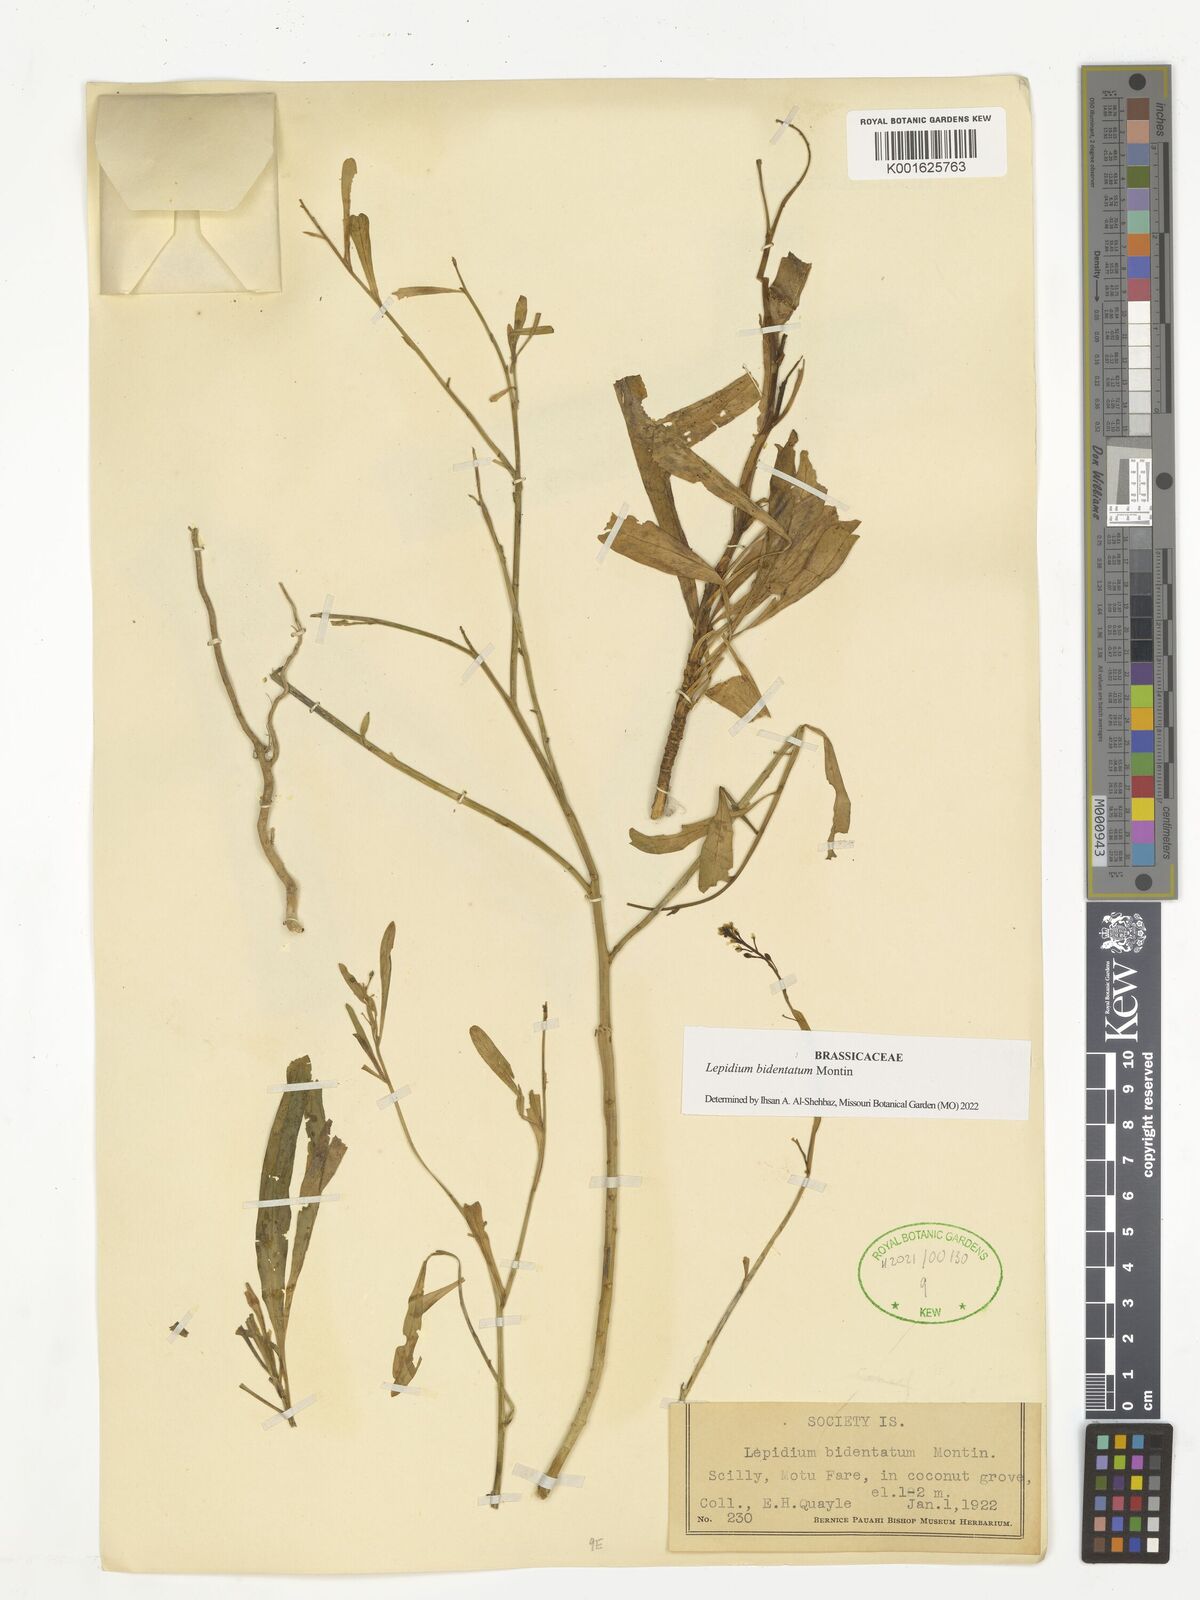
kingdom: Plantae
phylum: Tracheophyta
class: Magnoliopsida
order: Brassicales
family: Brassicaceae
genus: Lepidium
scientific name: Lepidium bidentatum
